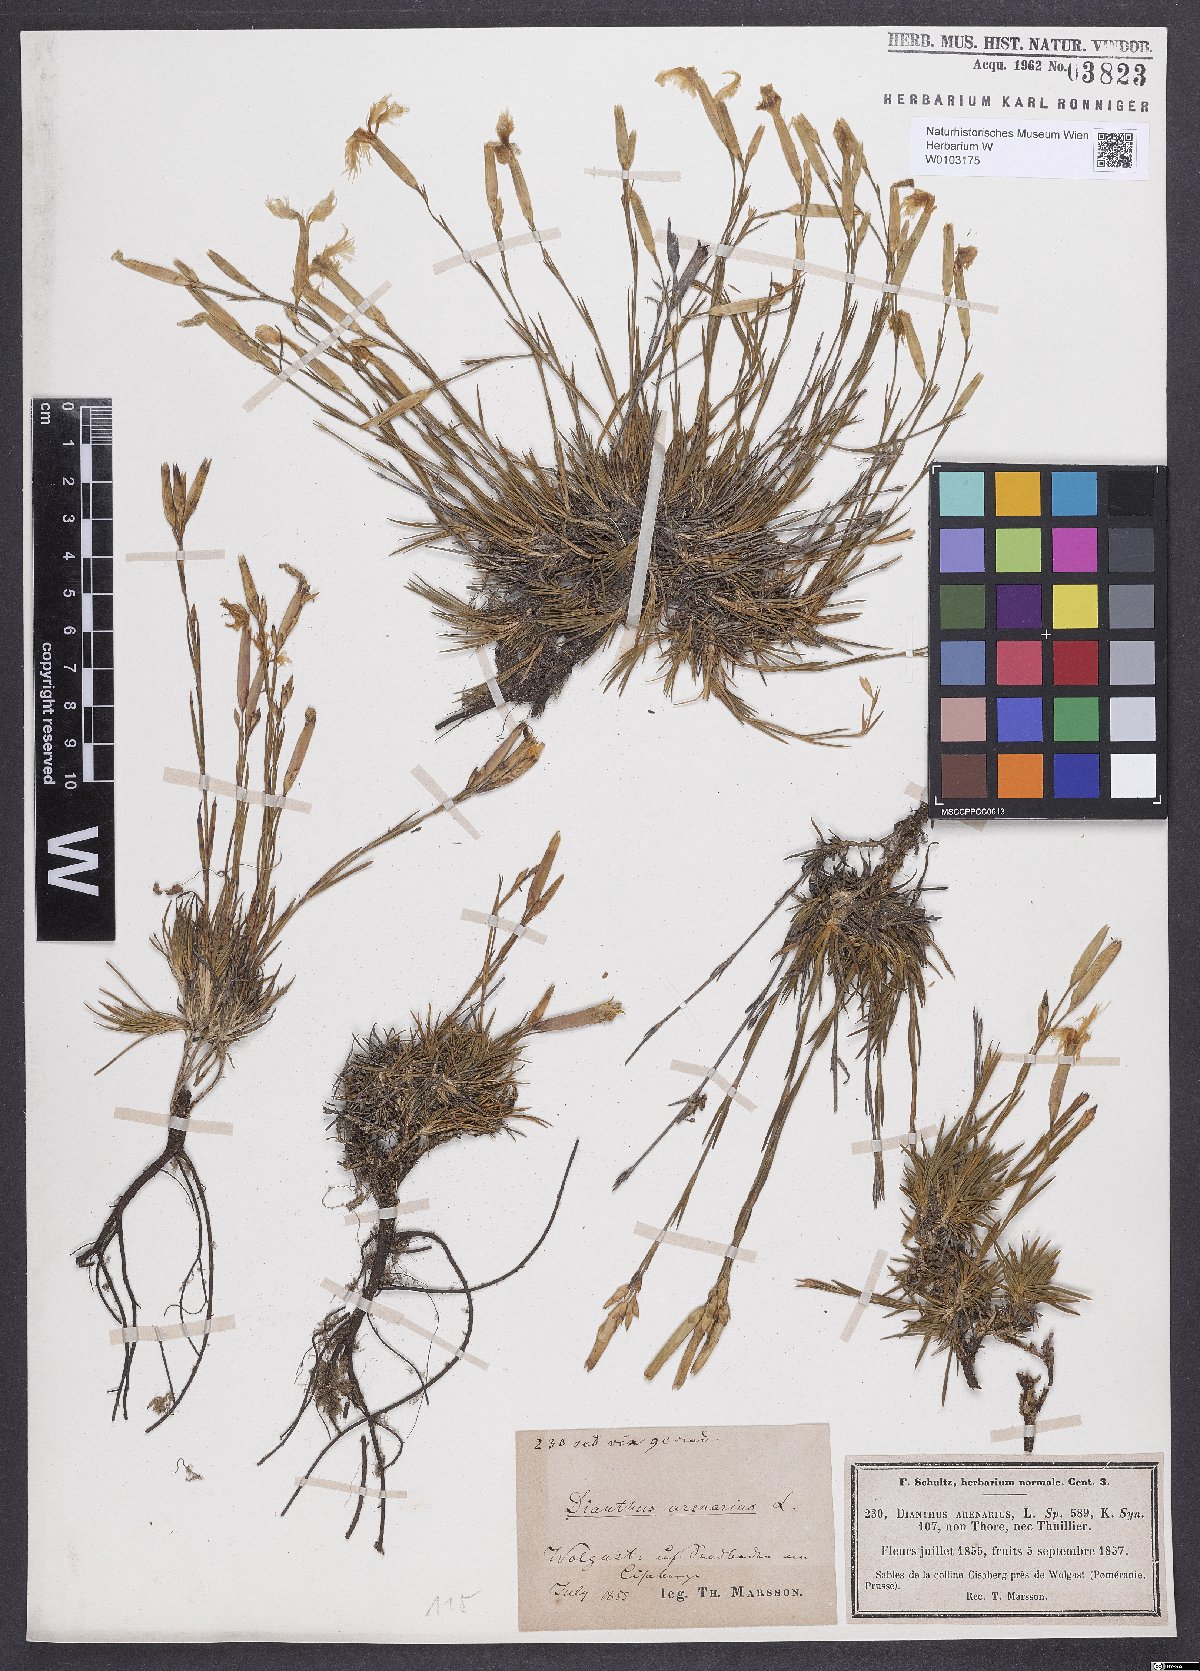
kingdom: Plantae
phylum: Tracheophyta
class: Magnoliopsida
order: Caryophyllales
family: Caryophyllaceae
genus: Dianthus
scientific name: Dianthus arenarius
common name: Stone pink
